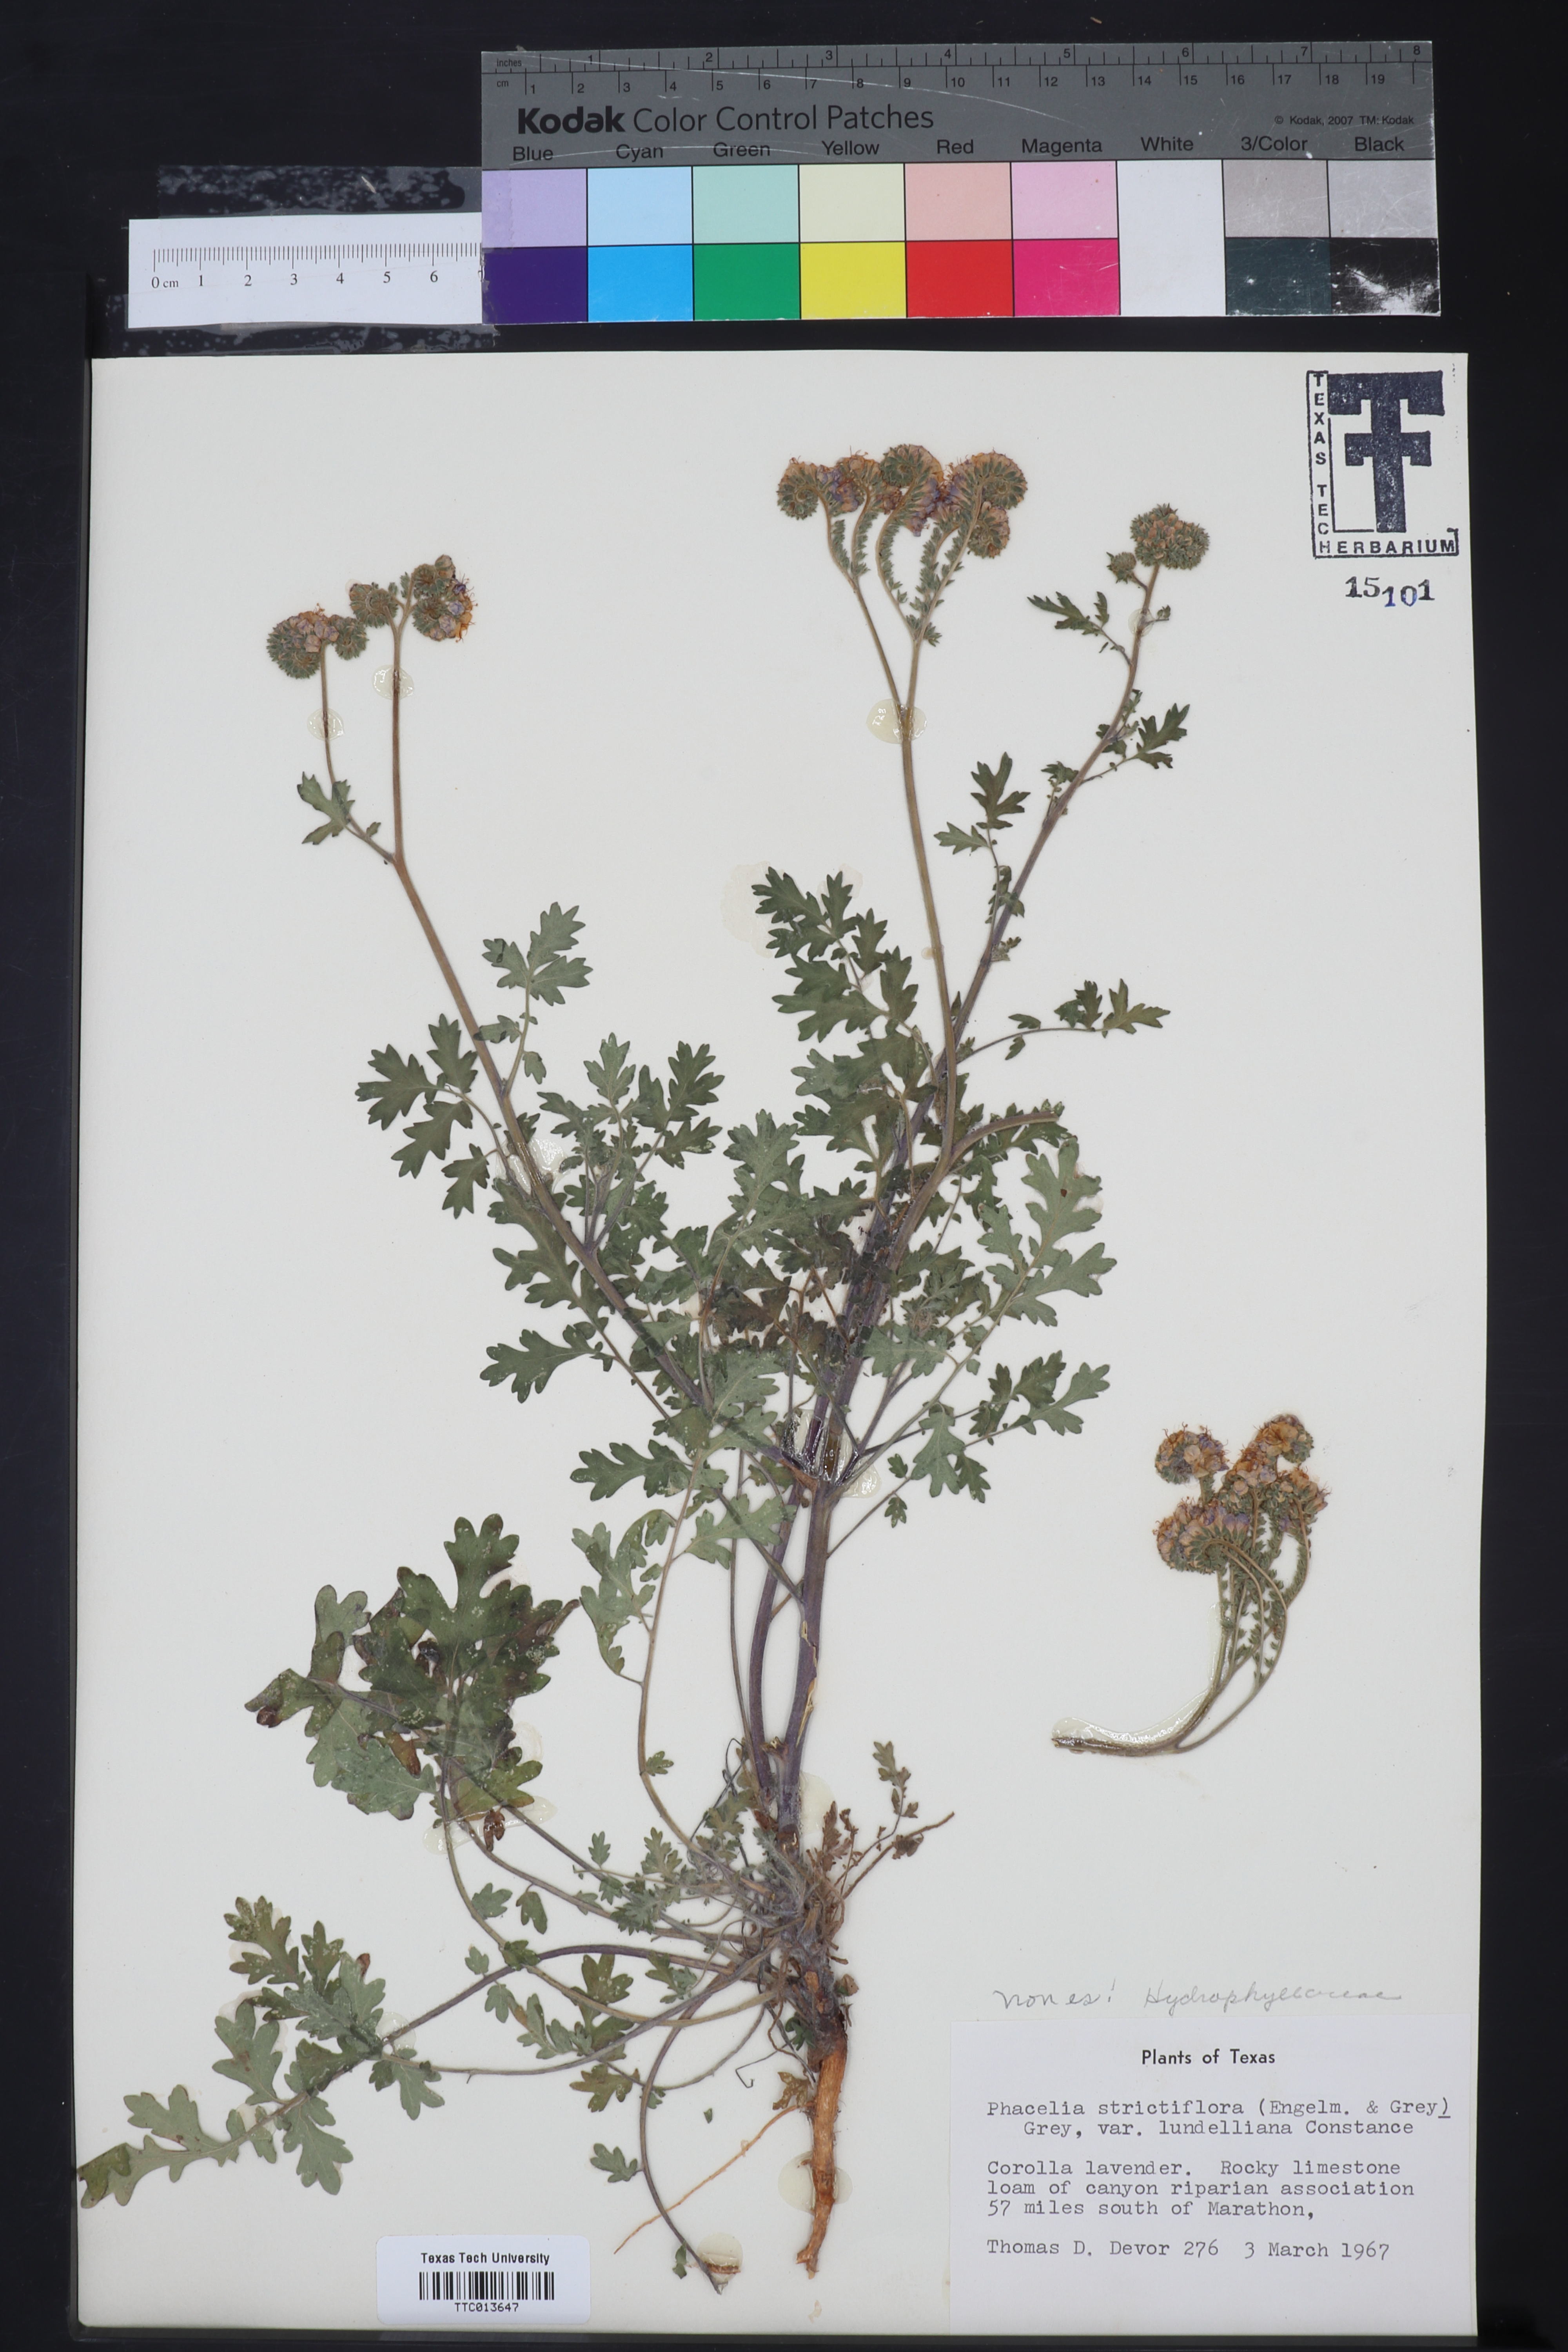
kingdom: Plantae
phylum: Tracheophyta
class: Magnoliopsida
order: Boraginales
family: Hydrophyllaceae
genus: Phacelia
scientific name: Phacelia strictiflora
